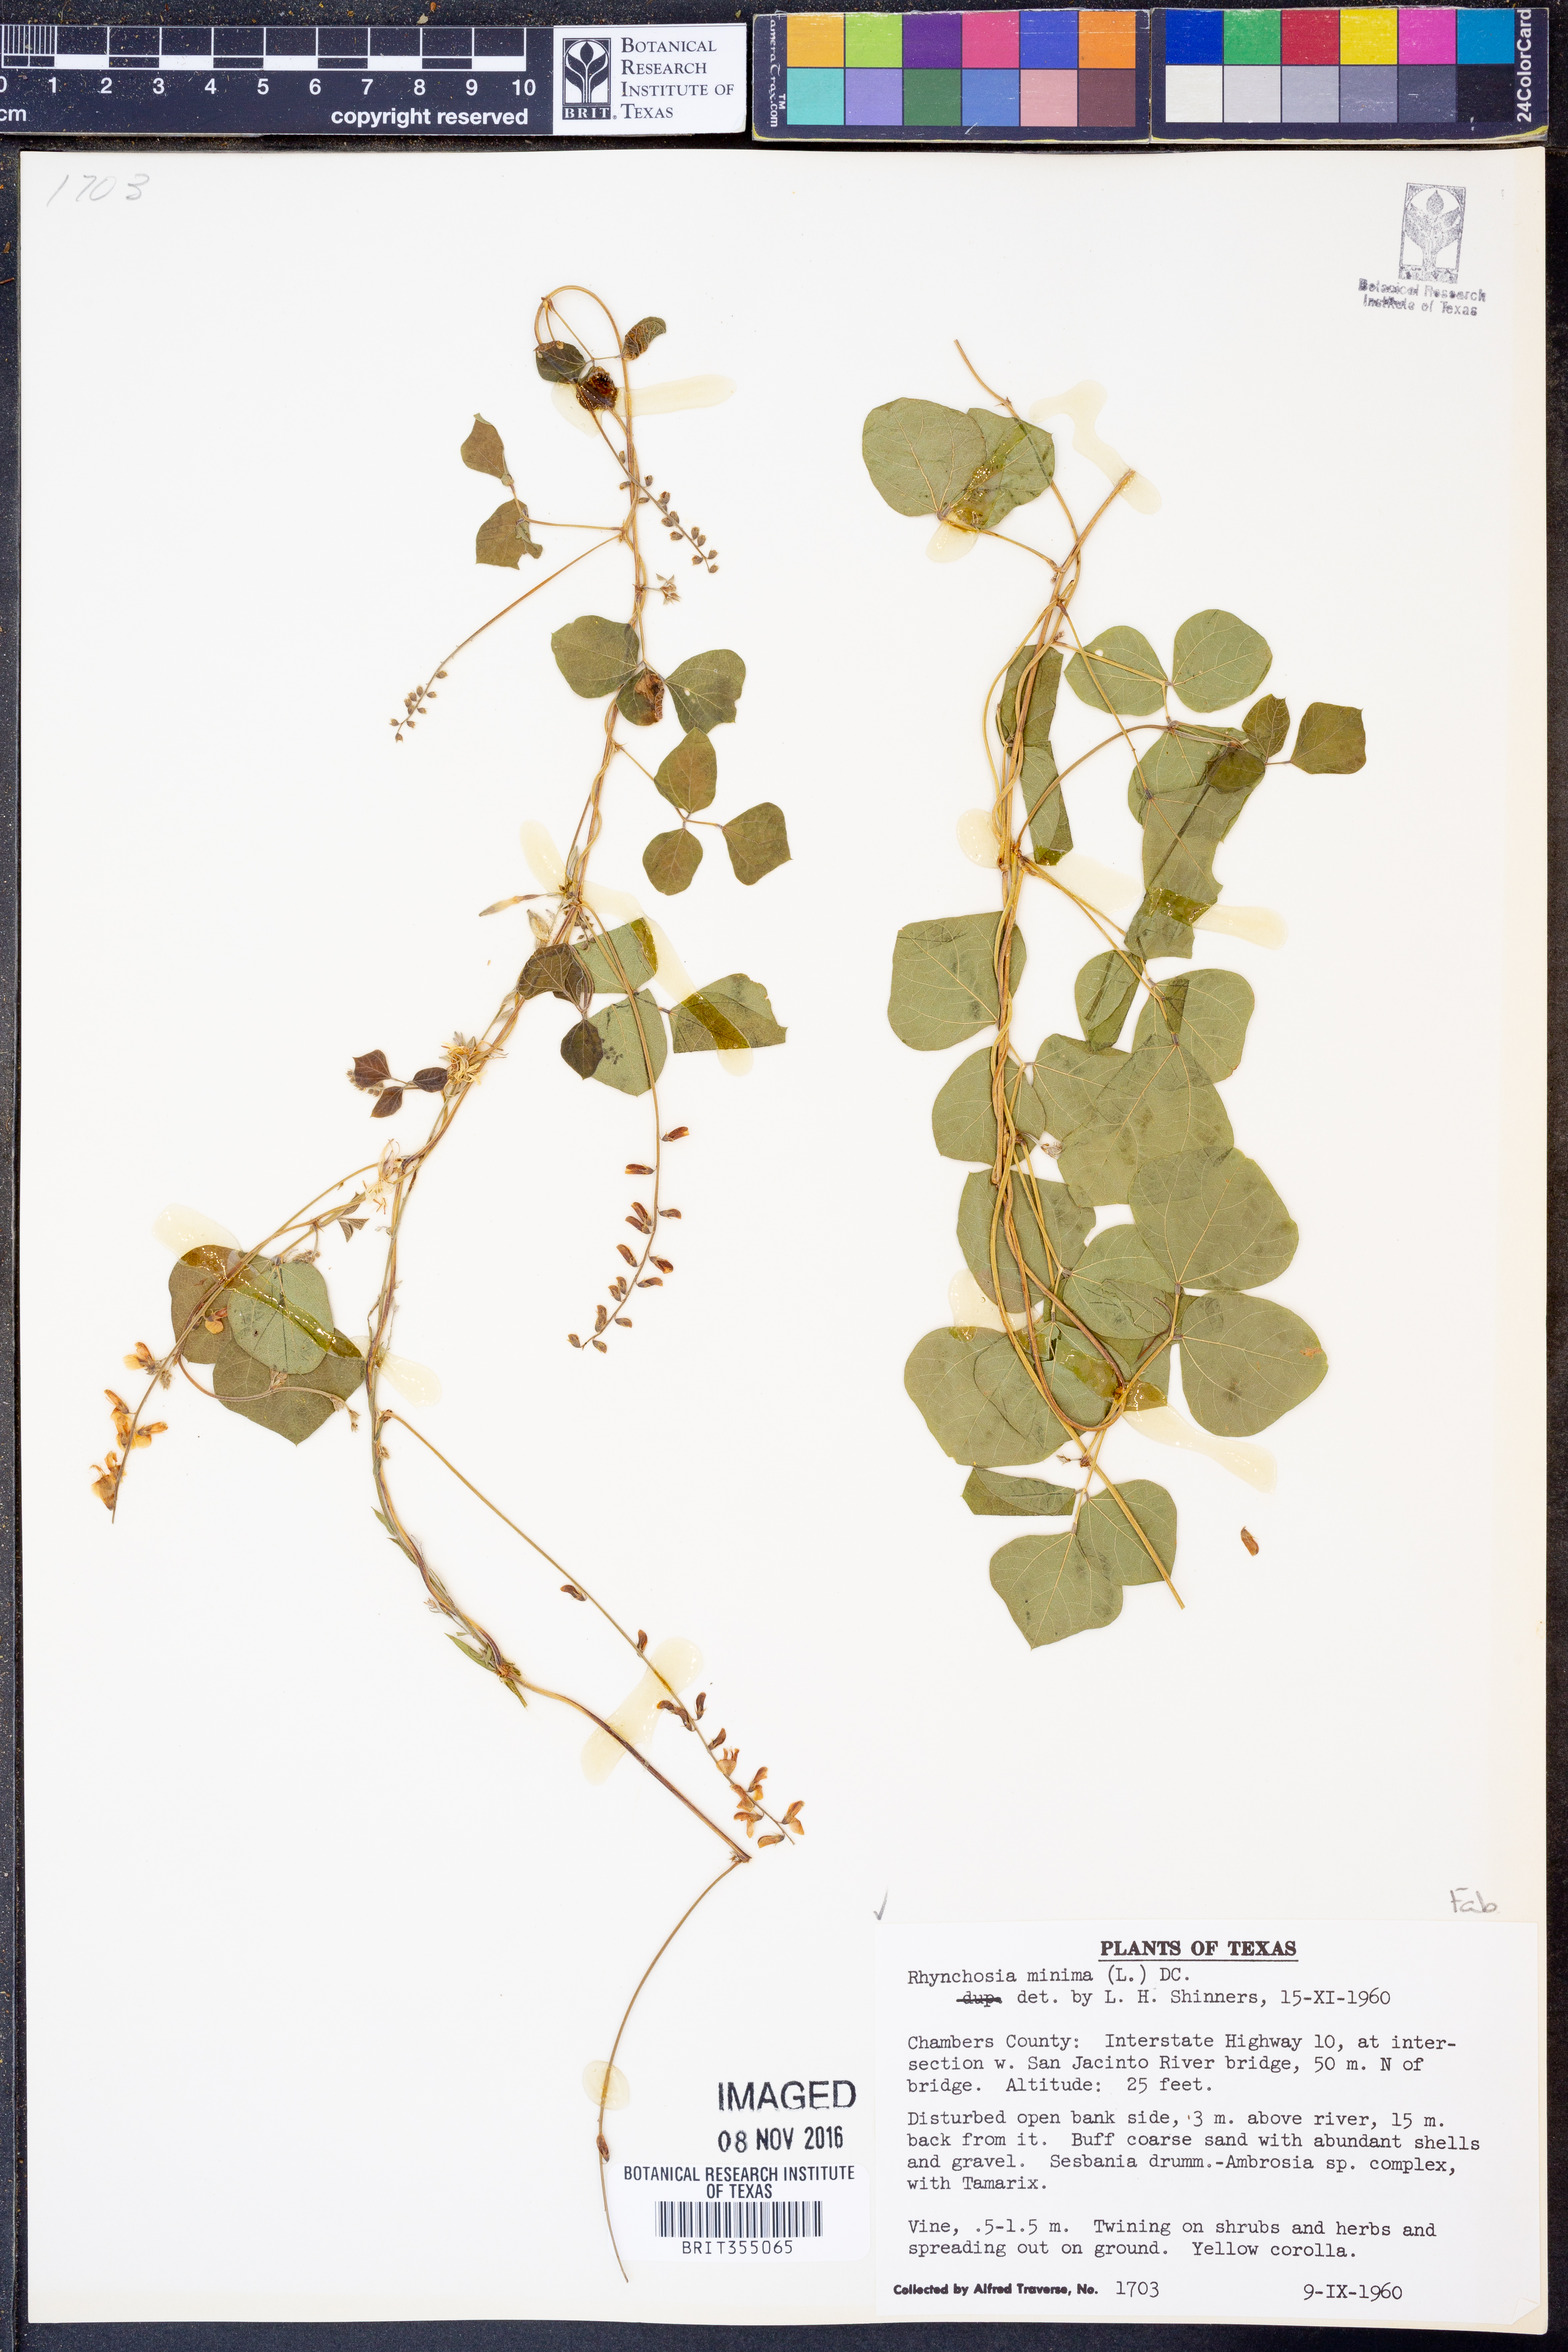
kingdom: Plantae
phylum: Tracheophyta
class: Magnoliopsida
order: Fabales
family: Fabaceae
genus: Rhynchosia
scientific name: Rhynchosia minima
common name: Least snoutbean
